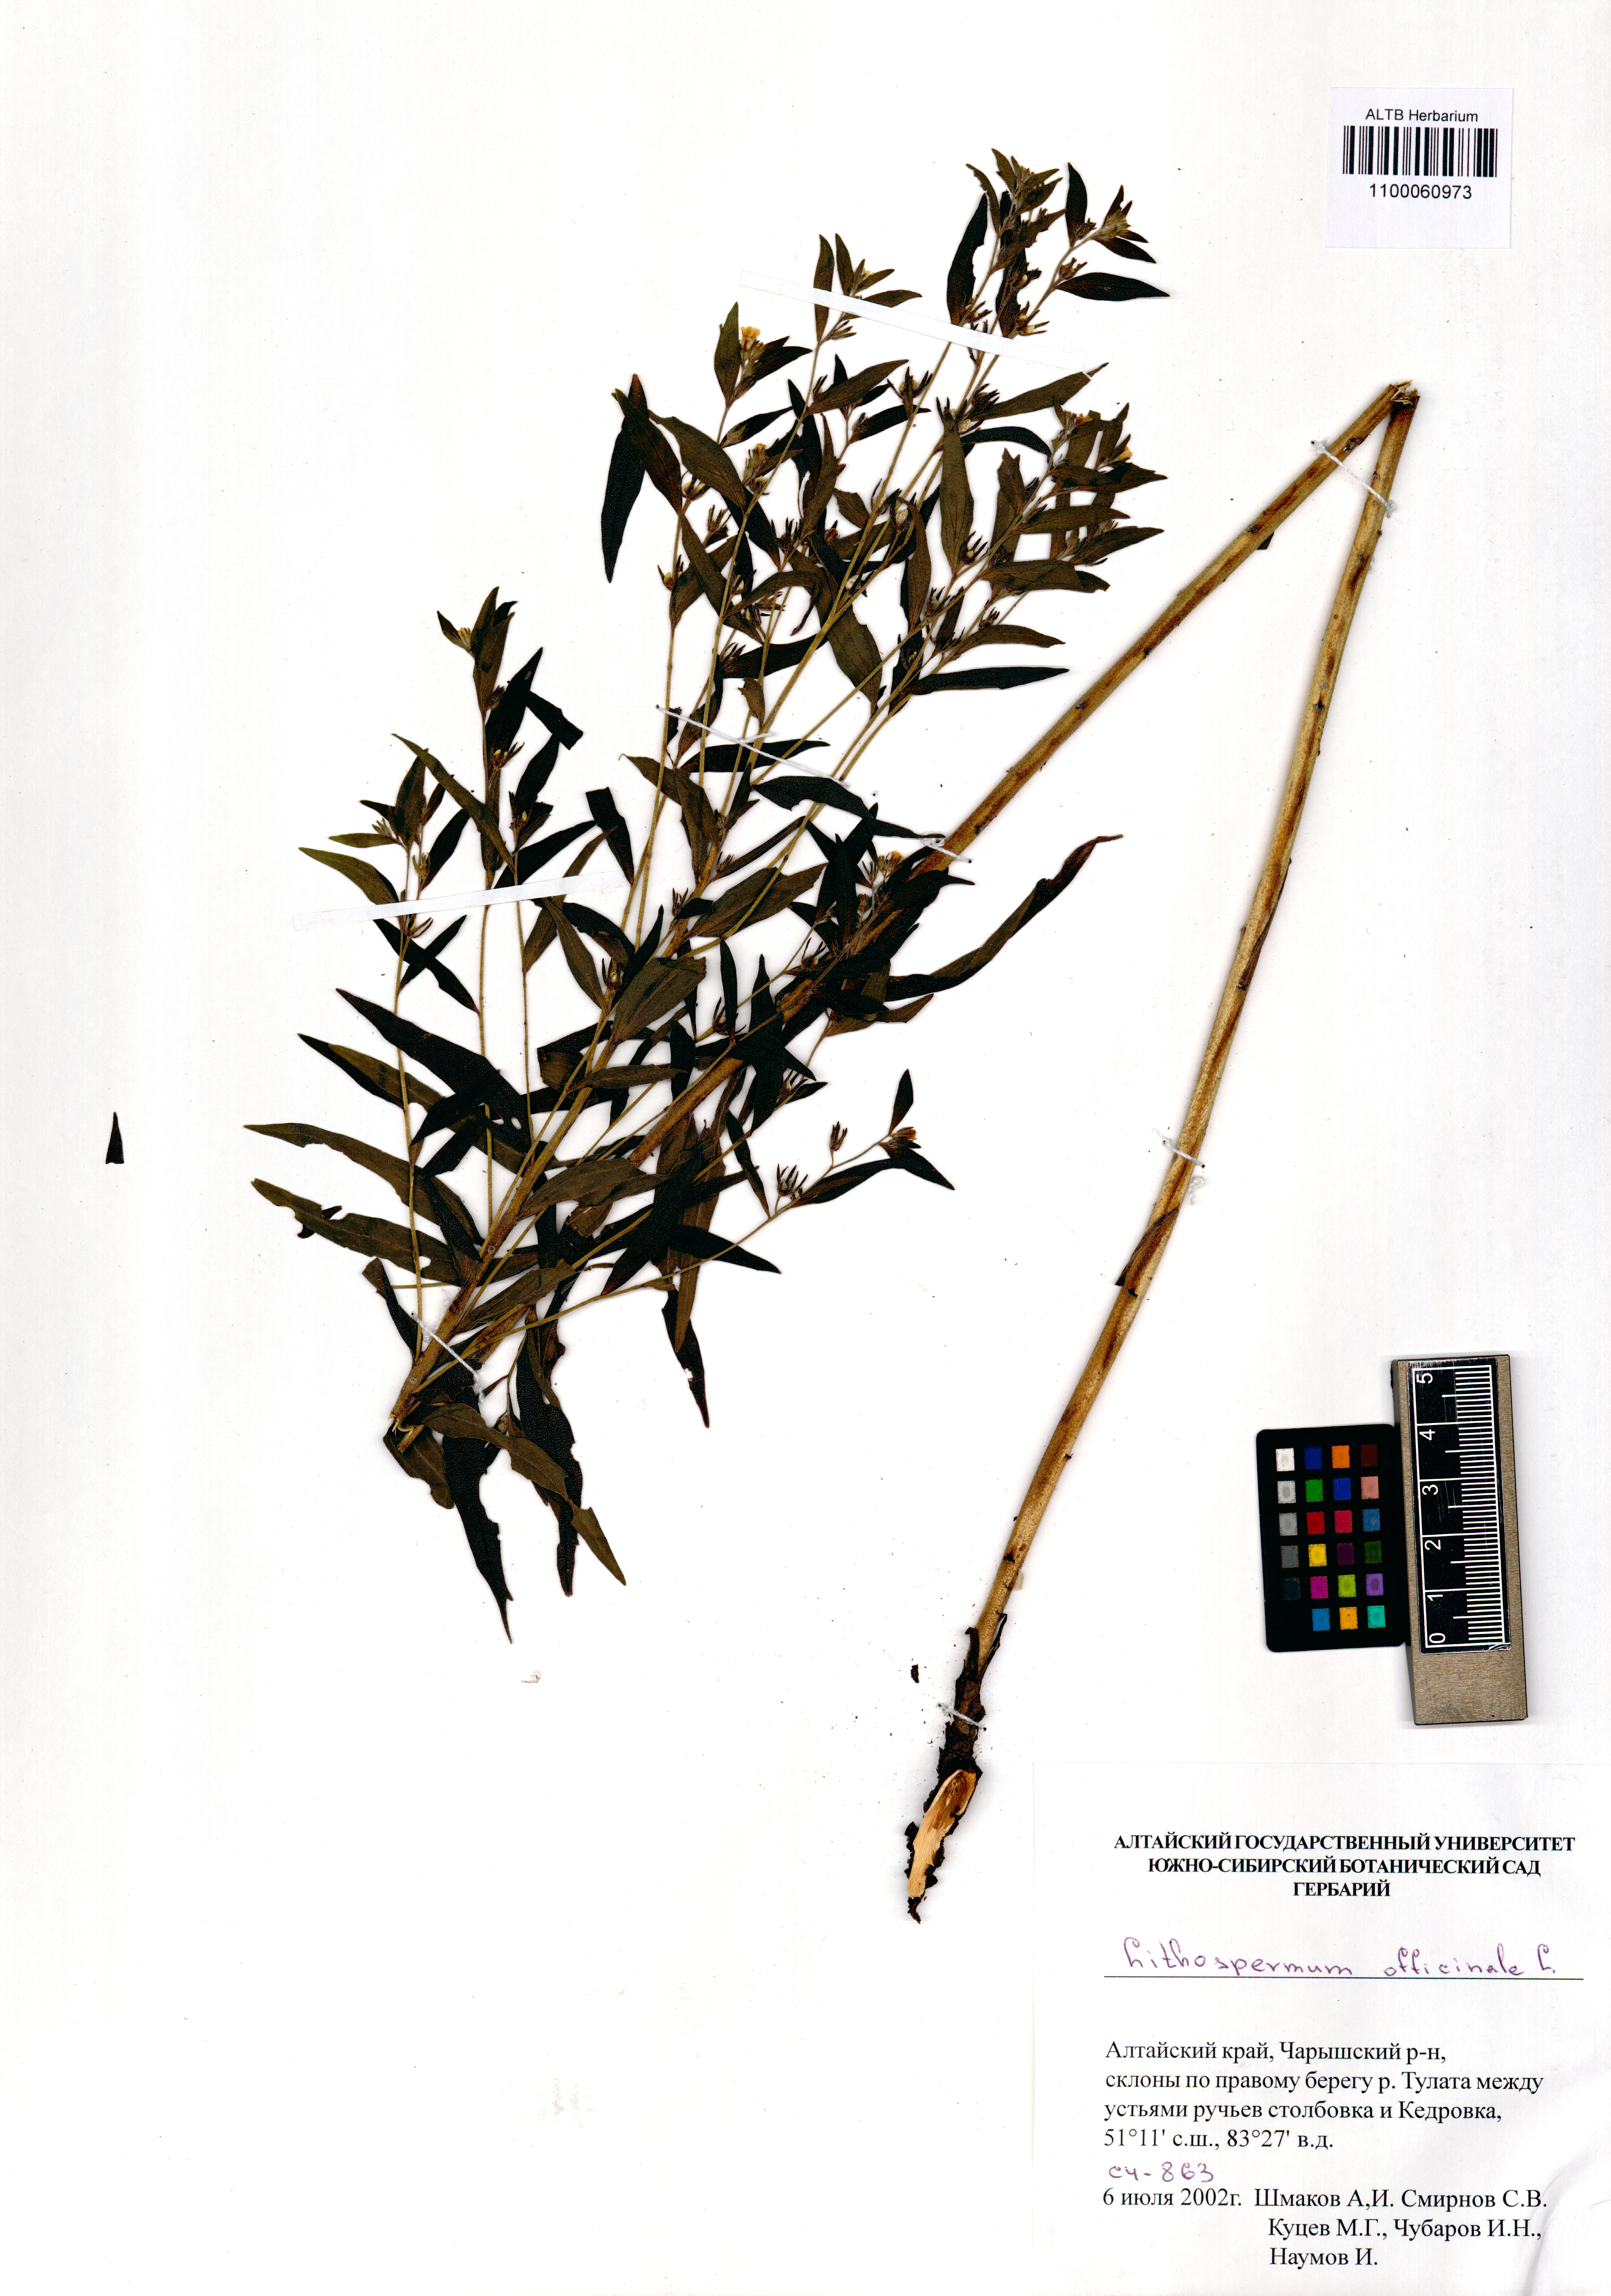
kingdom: Plantae
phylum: Tracheophyta
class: Magnoliopsida
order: Boraginales
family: Boraginaceae
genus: Lithospermum
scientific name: Lithospermum officinale
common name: Common gromwell
